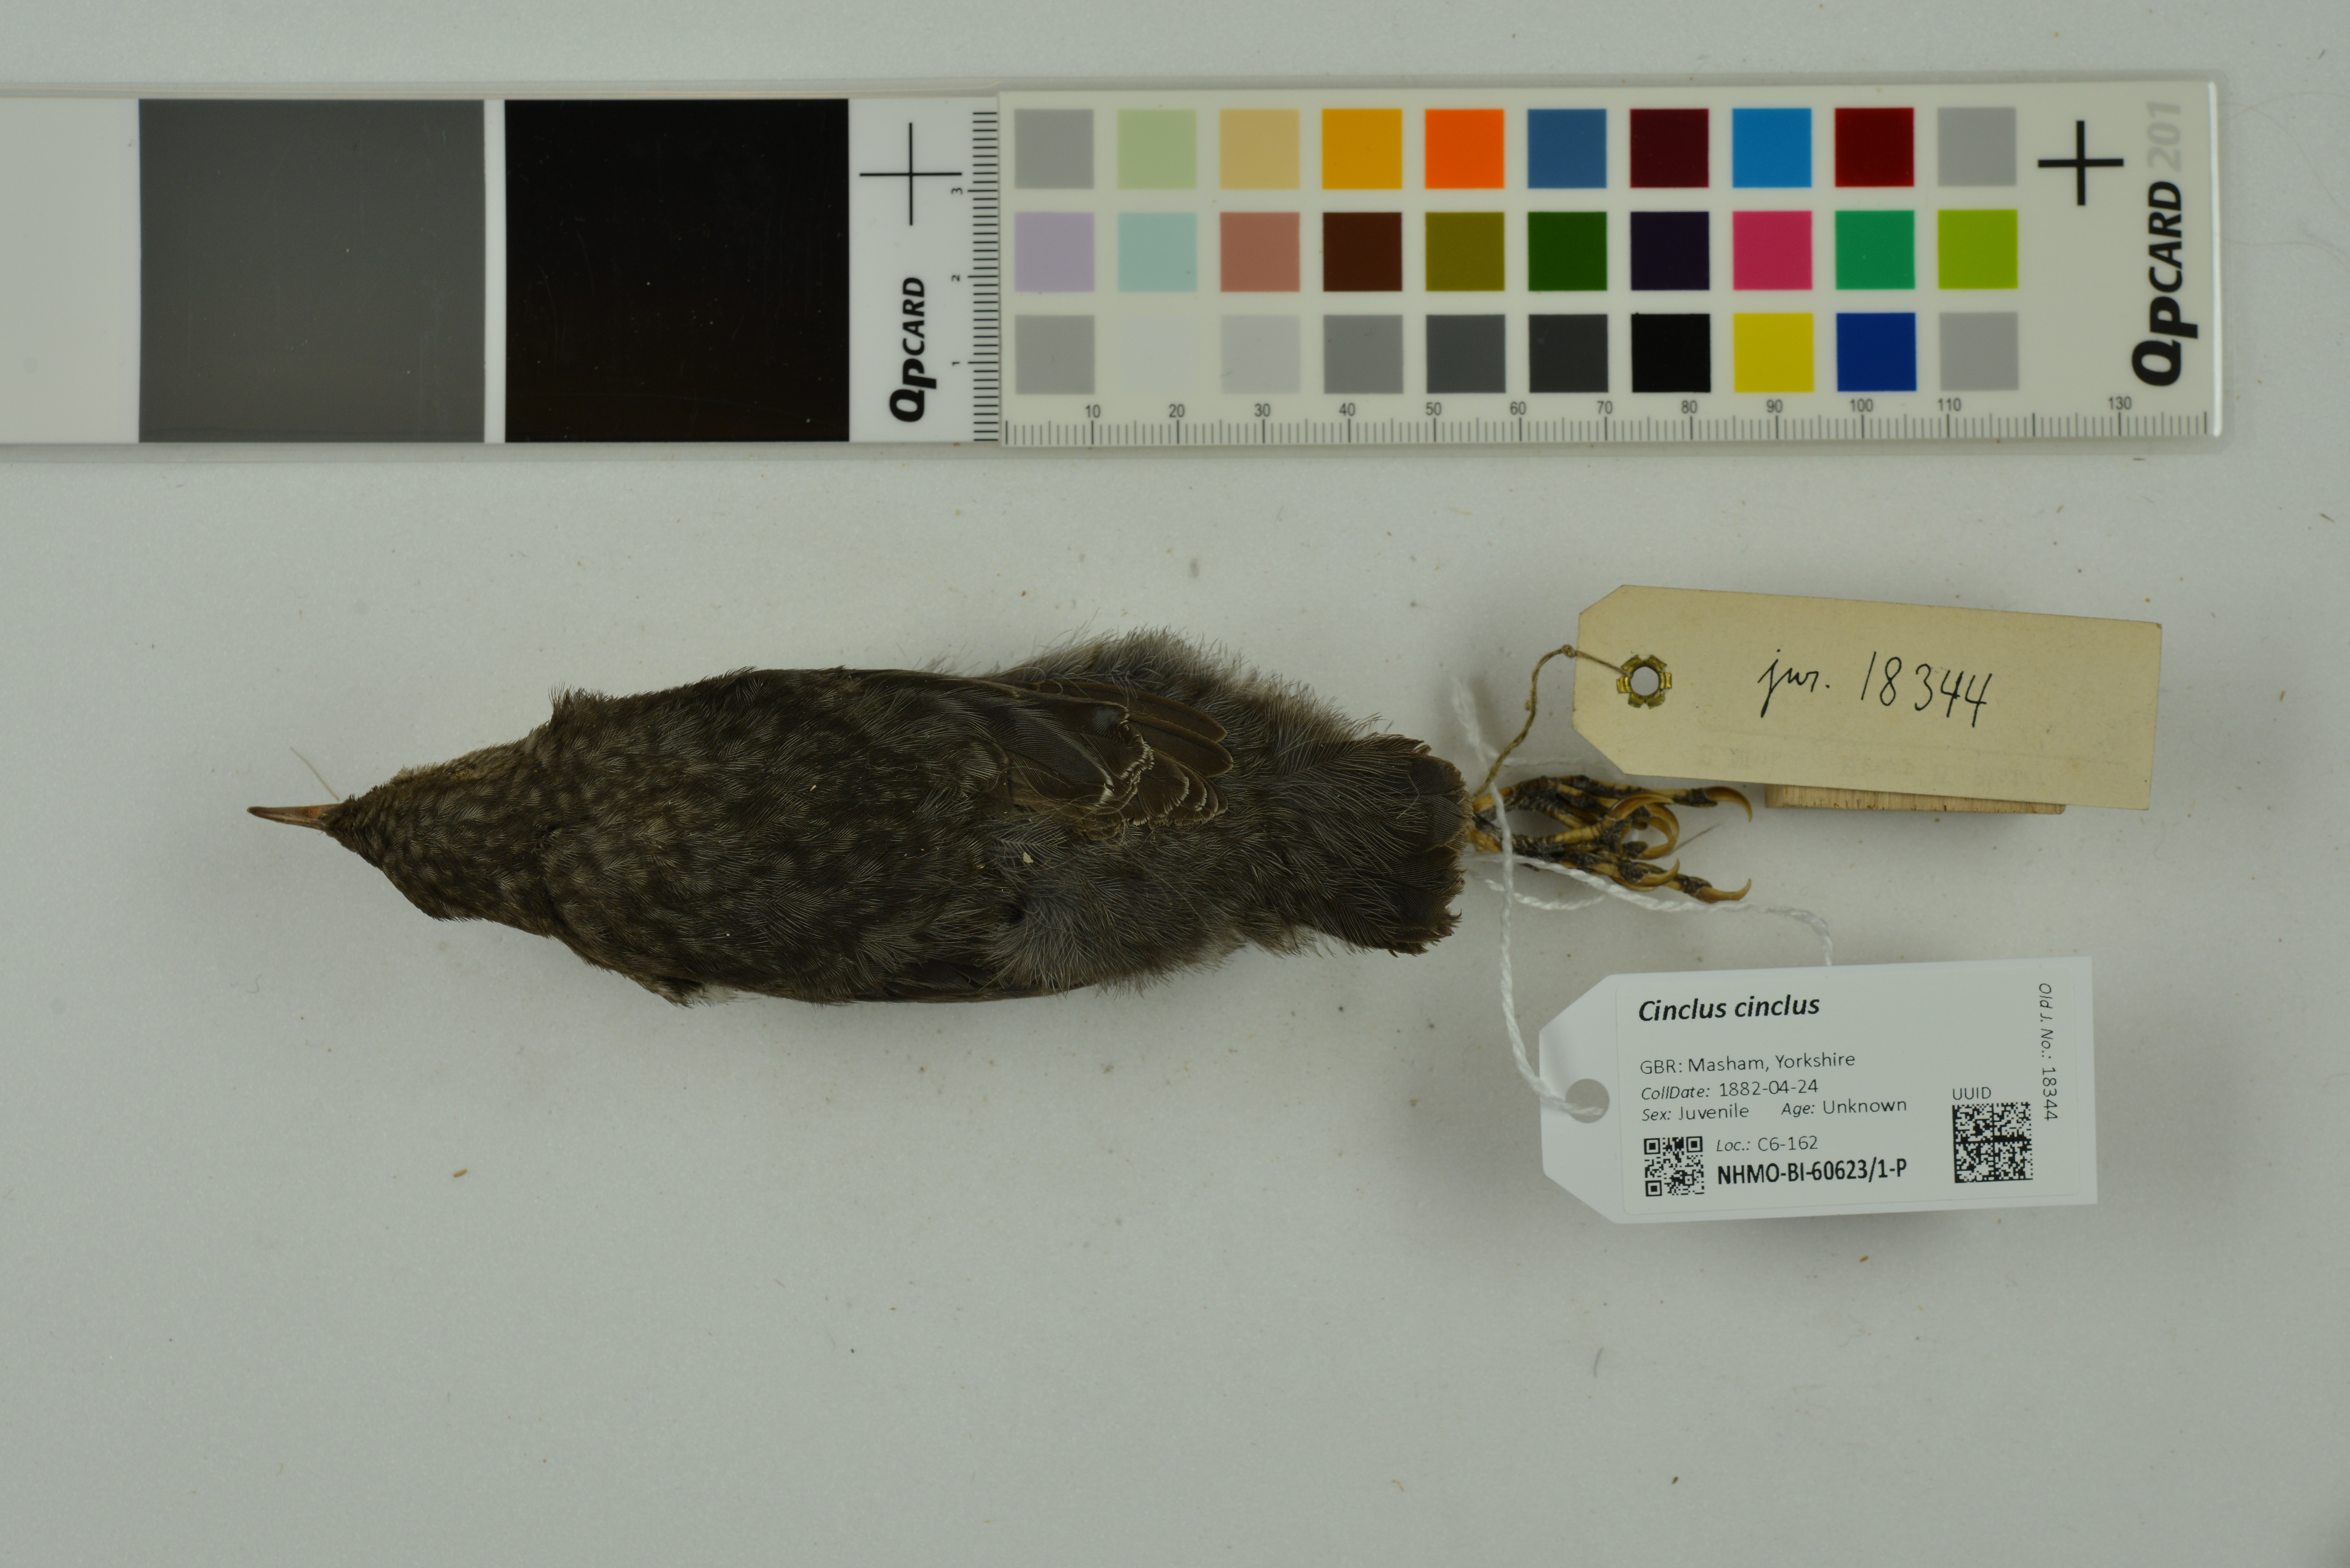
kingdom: Animalia
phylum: Chordata
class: Aves
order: Passeriformes
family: Cinclidae
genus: Cinclus
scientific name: Cinclus cinclus
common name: White-throated dipper
